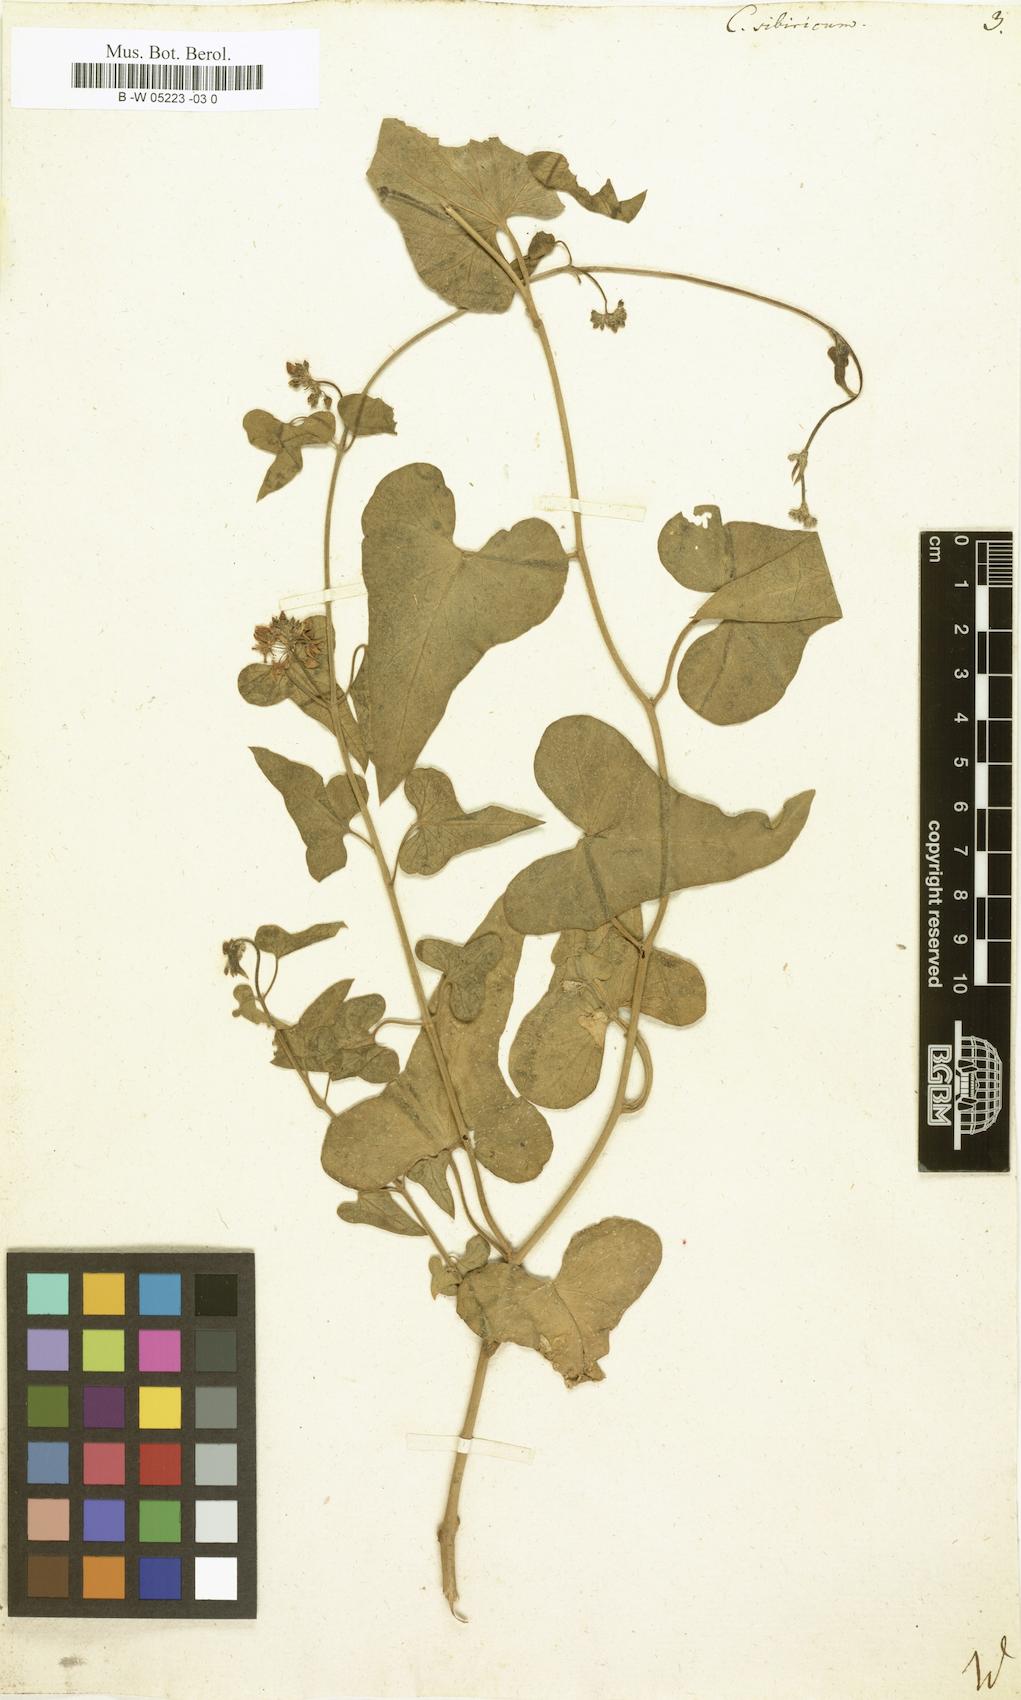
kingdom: Plantae
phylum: Tracheophyta
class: Magnoliopsida
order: Gentianales
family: Apocynaceae
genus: Cynanchum
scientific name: Cynanchum
